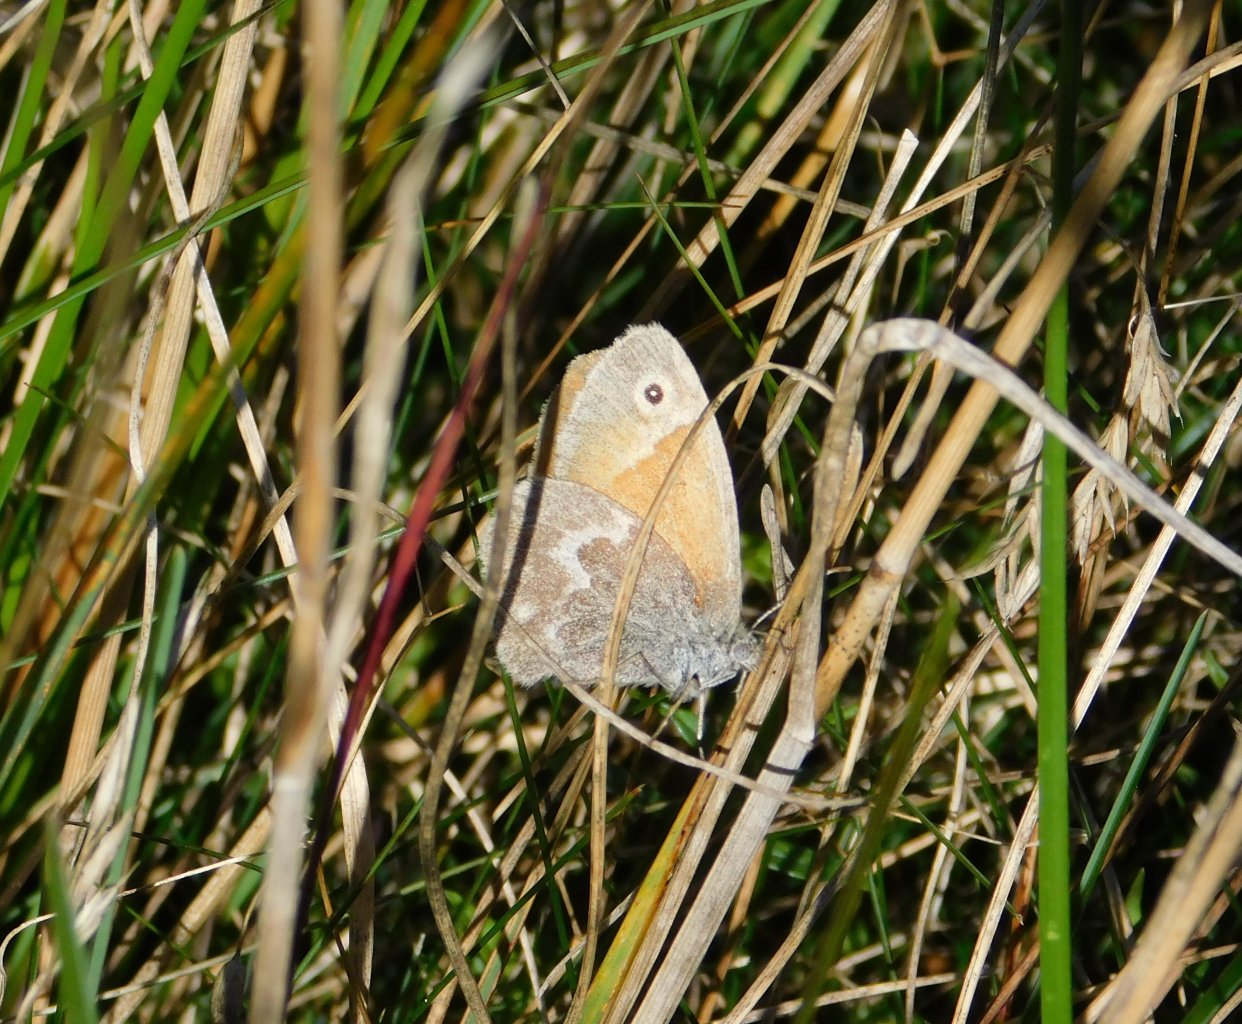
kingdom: Animalia
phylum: Arthropoda
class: Insecta
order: Lepidoptera
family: Nymphalidae
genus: Coenonympha
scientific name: Coenonympha tullia
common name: Large Heath
